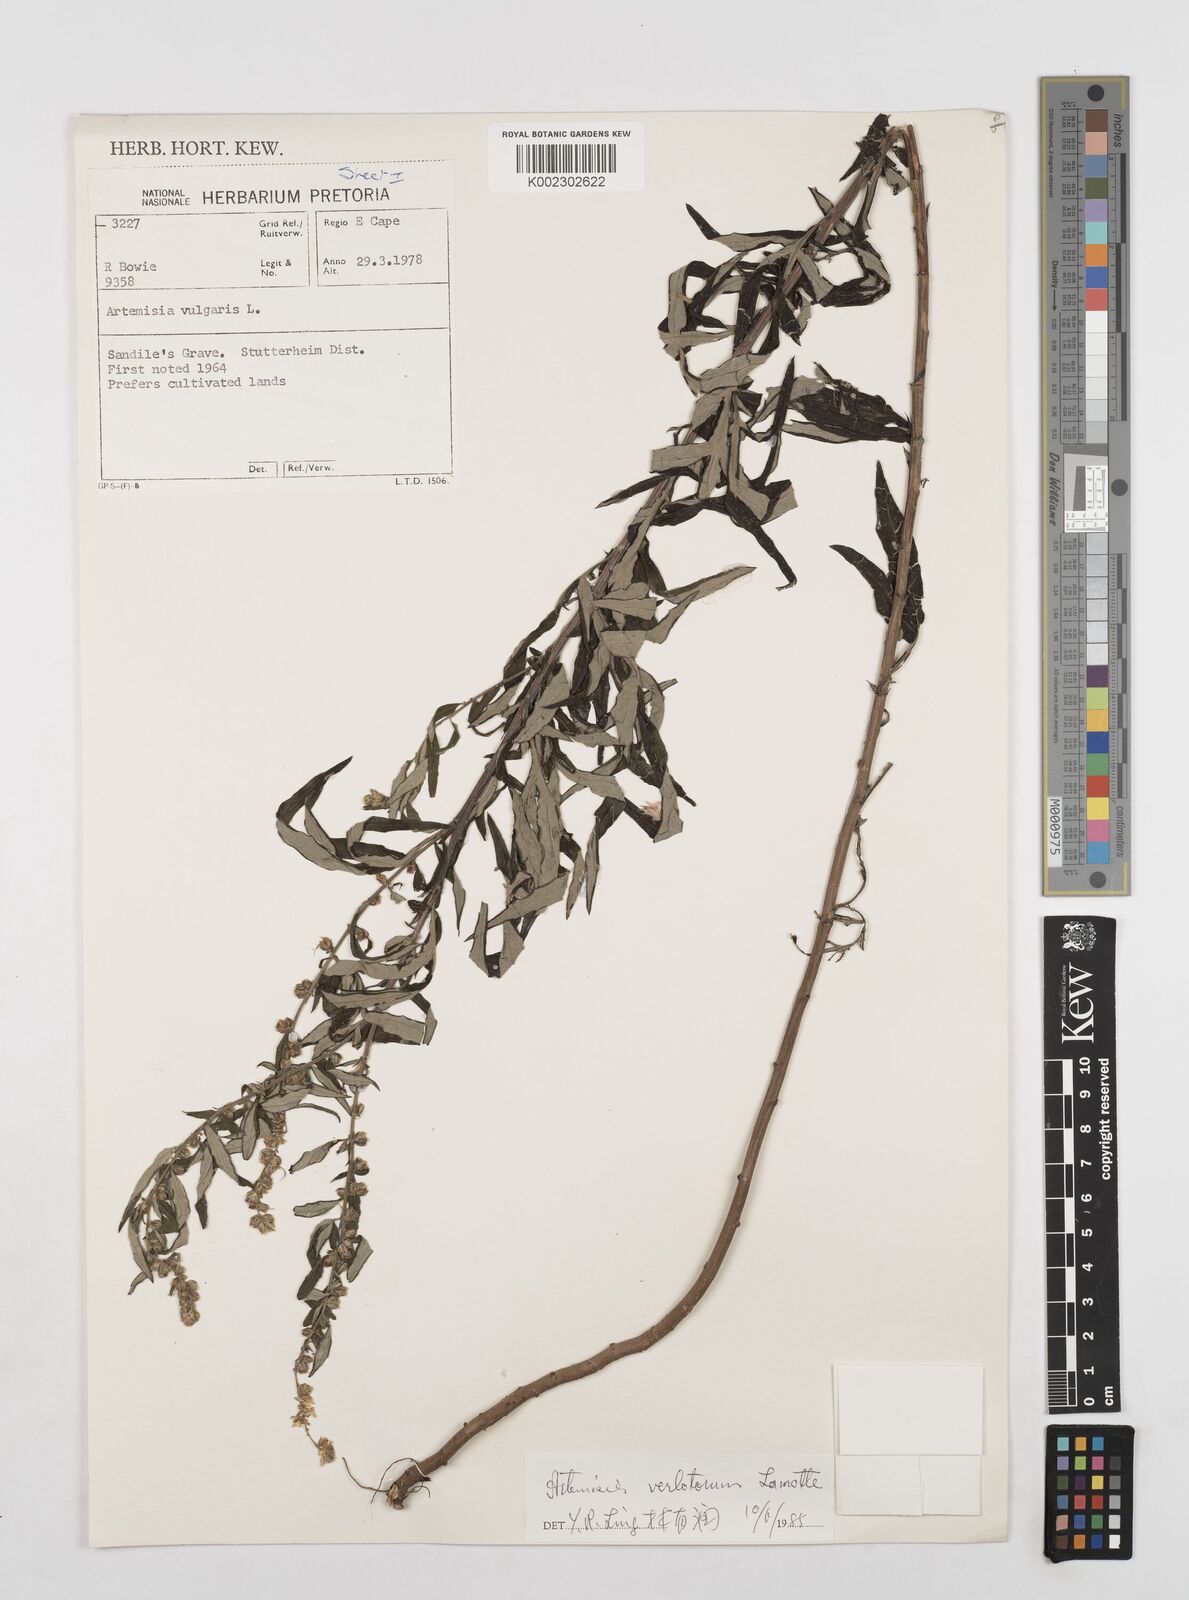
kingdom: Plantae
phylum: Tracheophyta
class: Magnoliopsida
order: Asterales
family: Asteraceae
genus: Artemisia
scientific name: Artemisia vulgaris
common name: Mugwort
